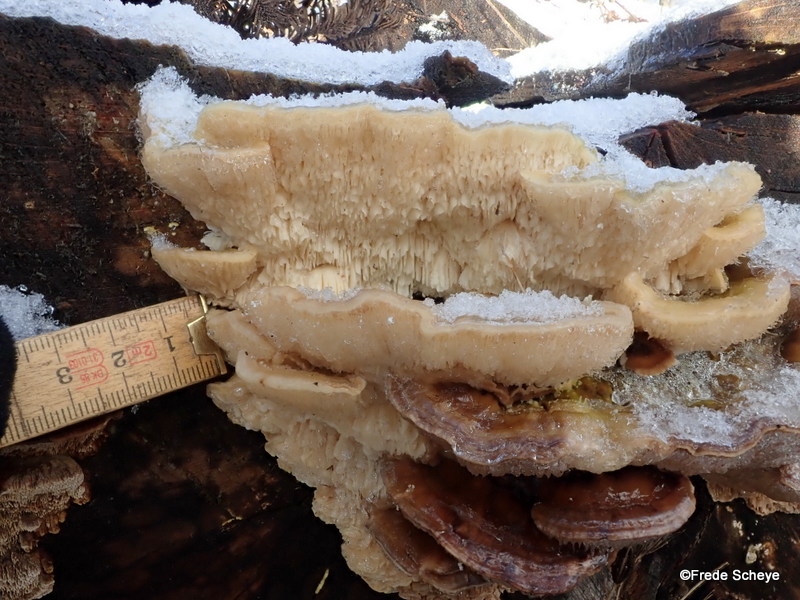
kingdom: Fungi
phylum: Basidiomycota
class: Agaricomycetes
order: Polyporales
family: Polyporaceae
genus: Lenzites
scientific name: Lenzites betulinus
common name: birke-læderporesvamp
